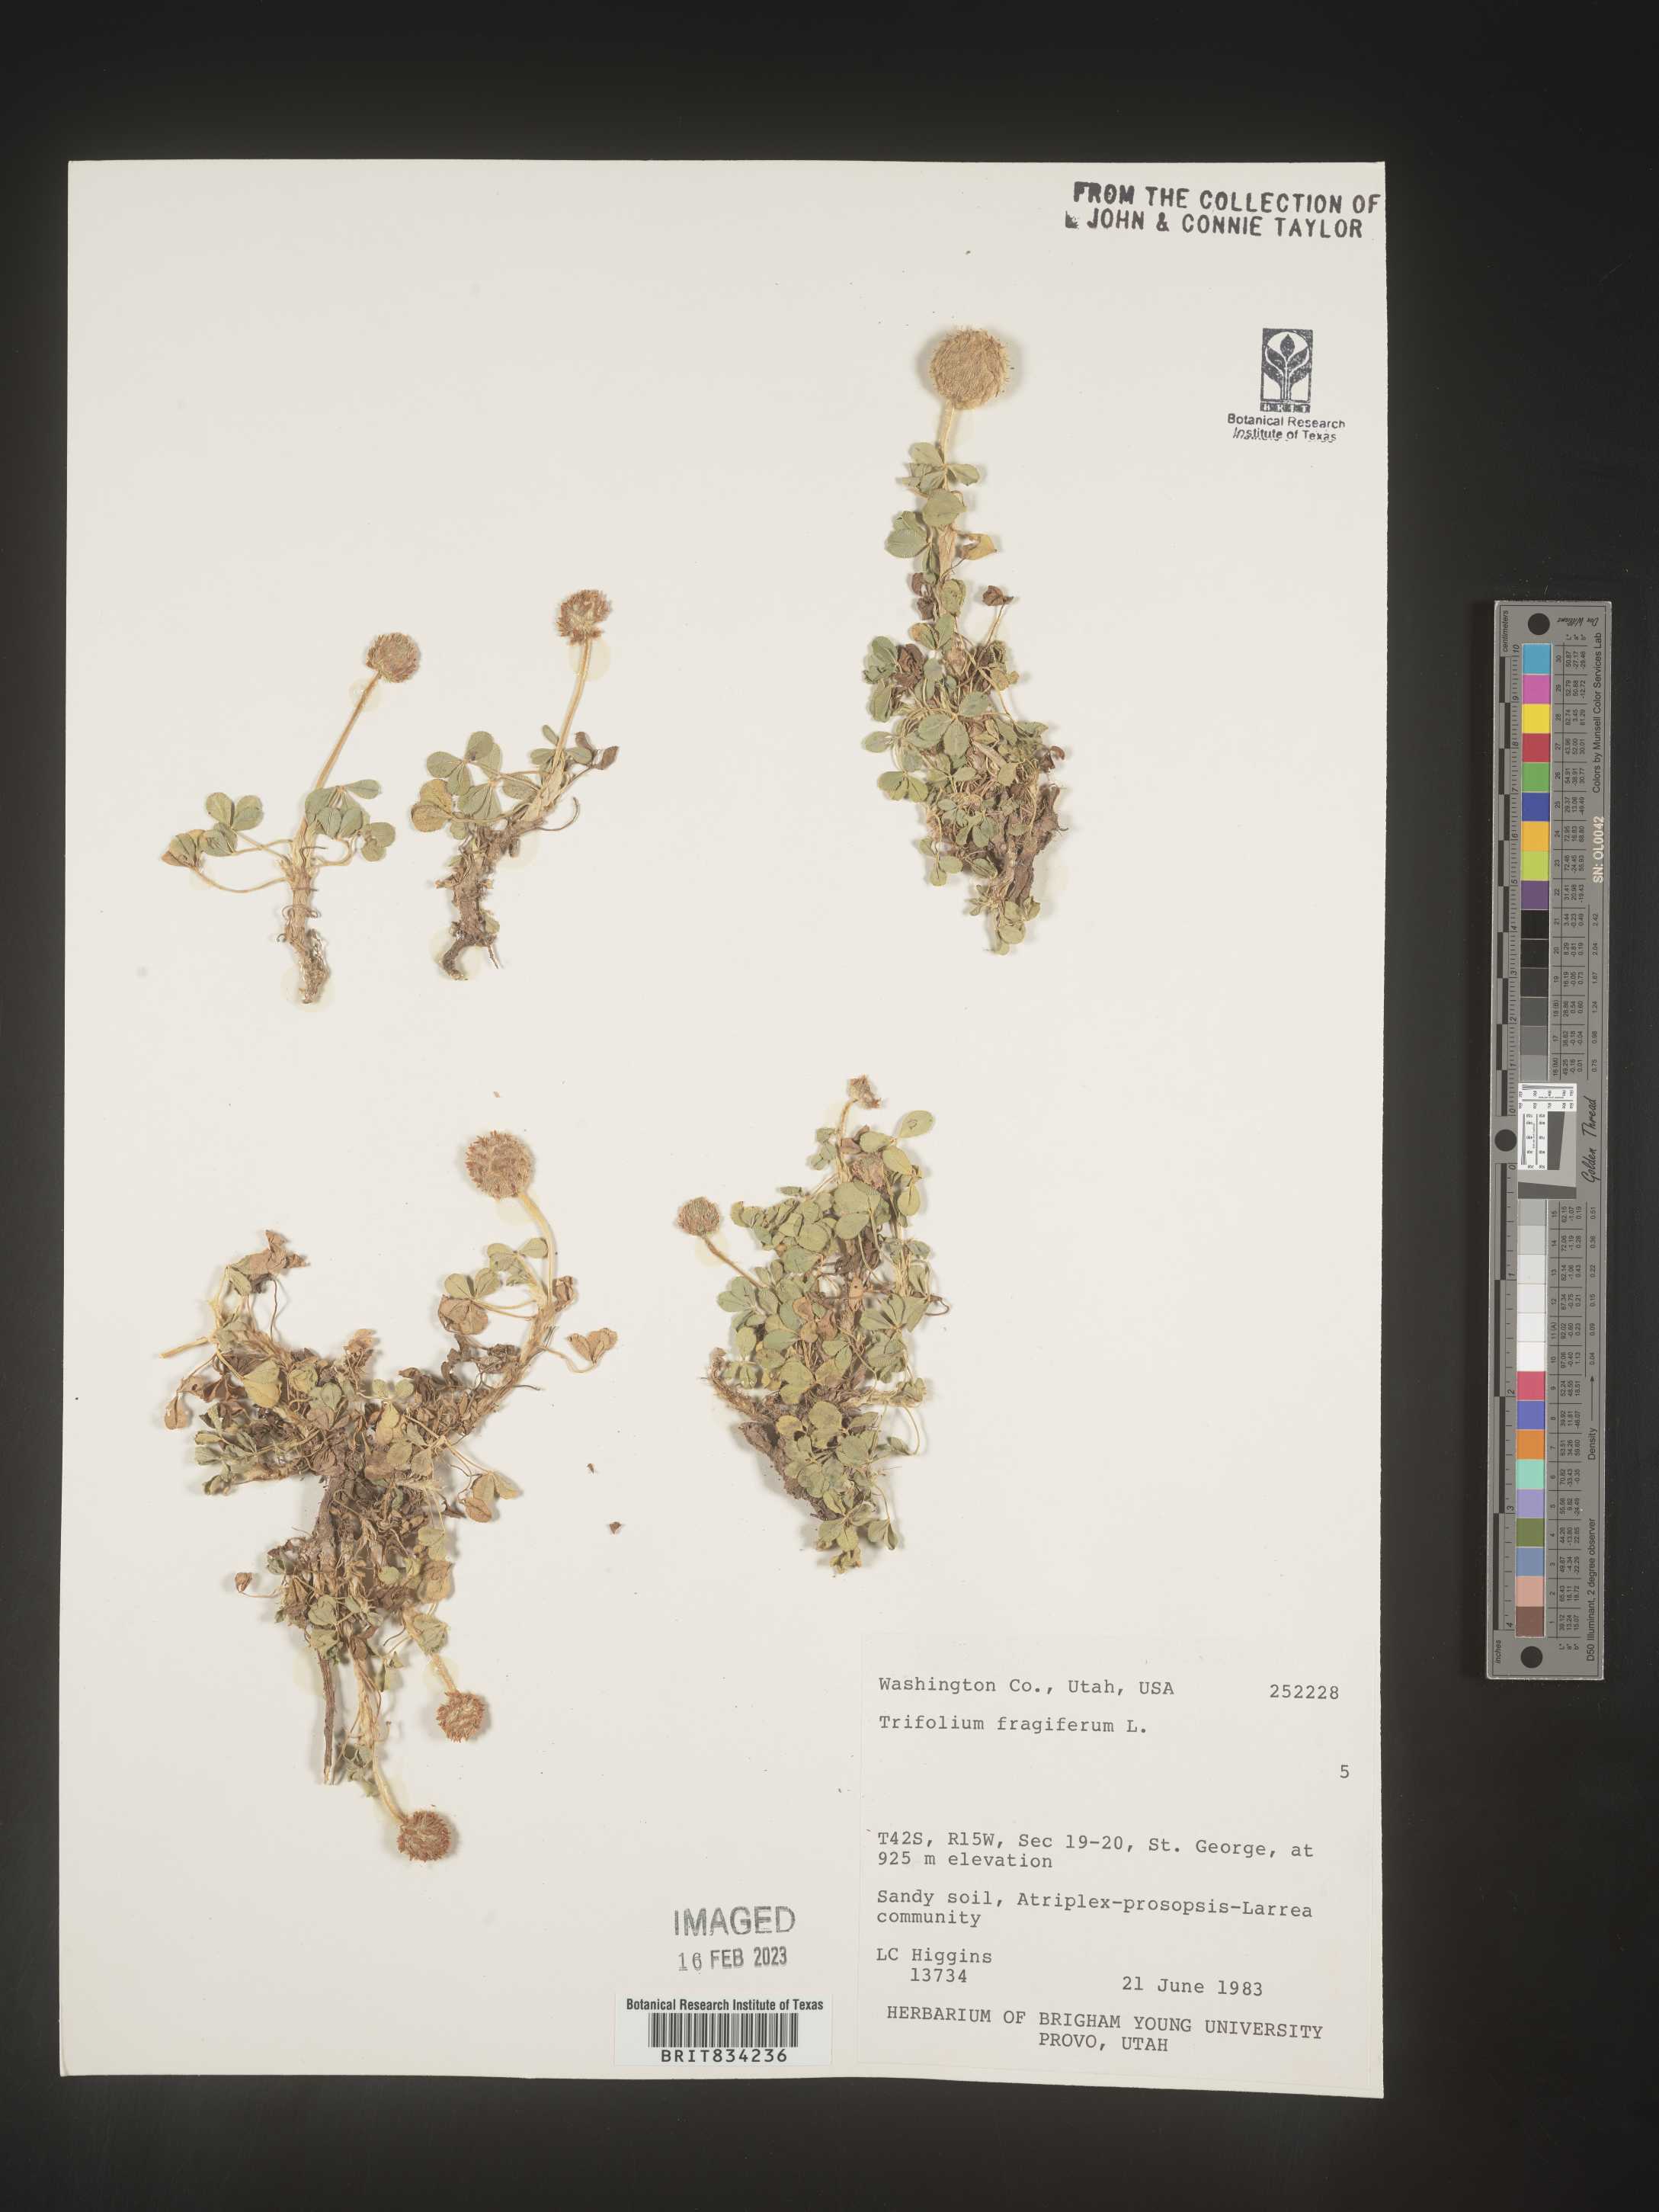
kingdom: Plantae
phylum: Tracheophyta
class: Magnoliopsida
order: Fabales
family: Fabaceae
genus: Trifolium
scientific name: Trifolium
